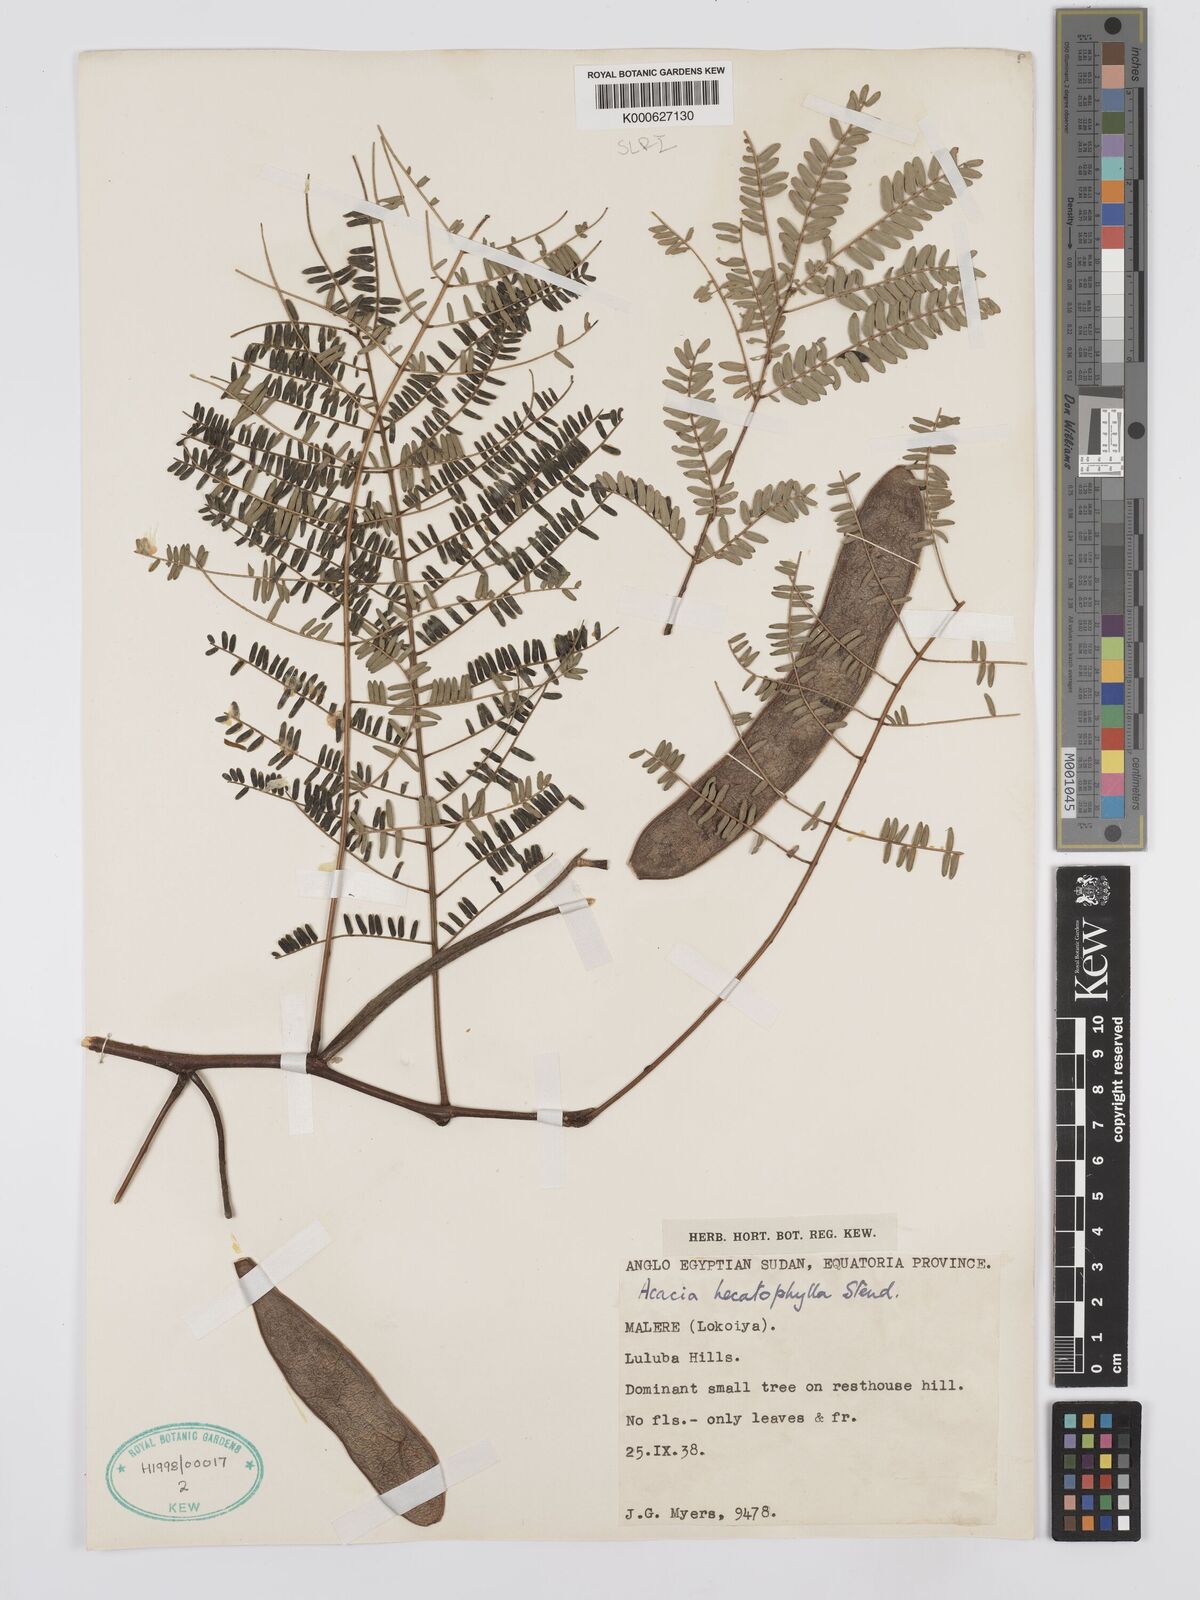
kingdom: Plantae
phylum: Tracheophyta
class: Magnoliopsida
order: Fabales
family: Fabaceae
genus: Senegalia
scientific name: Senegalia hecatophylla
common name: Long pod
